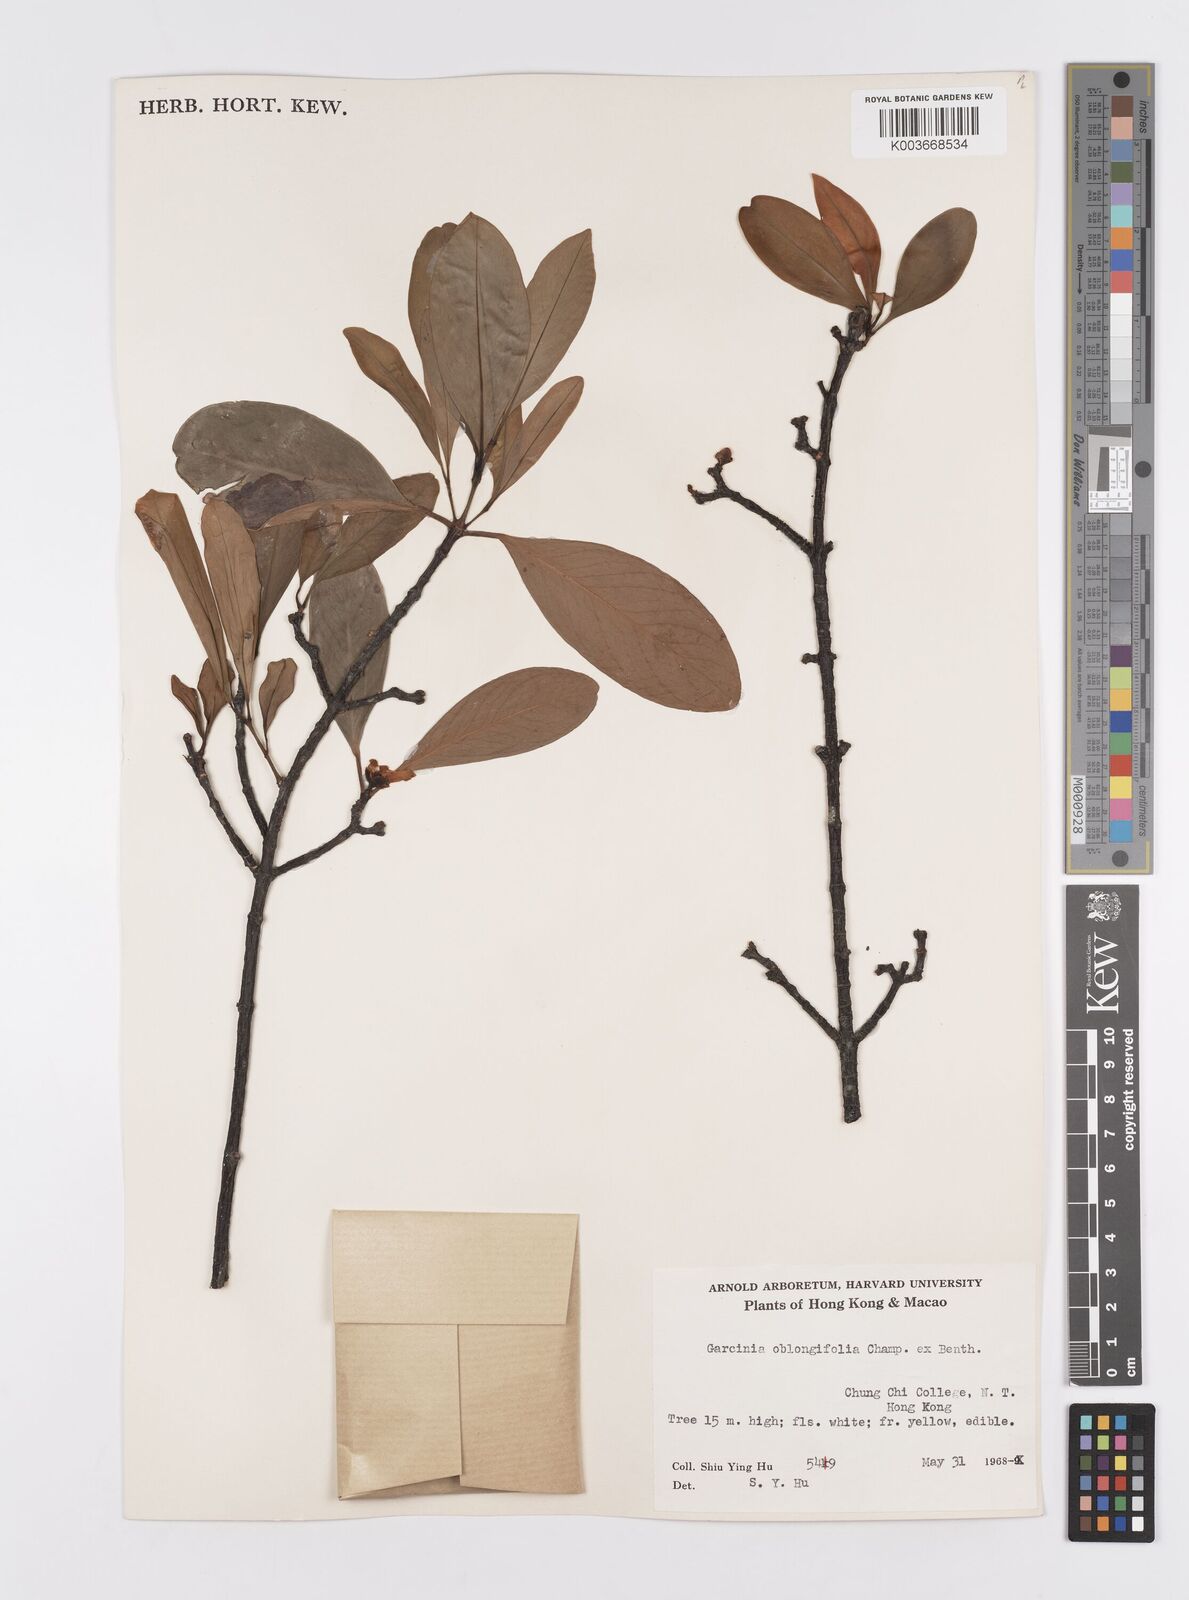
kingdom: Plantae
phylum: Tracheophyta
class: Magnoliopsida
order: Malpighiales
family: Clusiaceae
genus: Garcinia
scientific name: Garcinia oblongifolia
